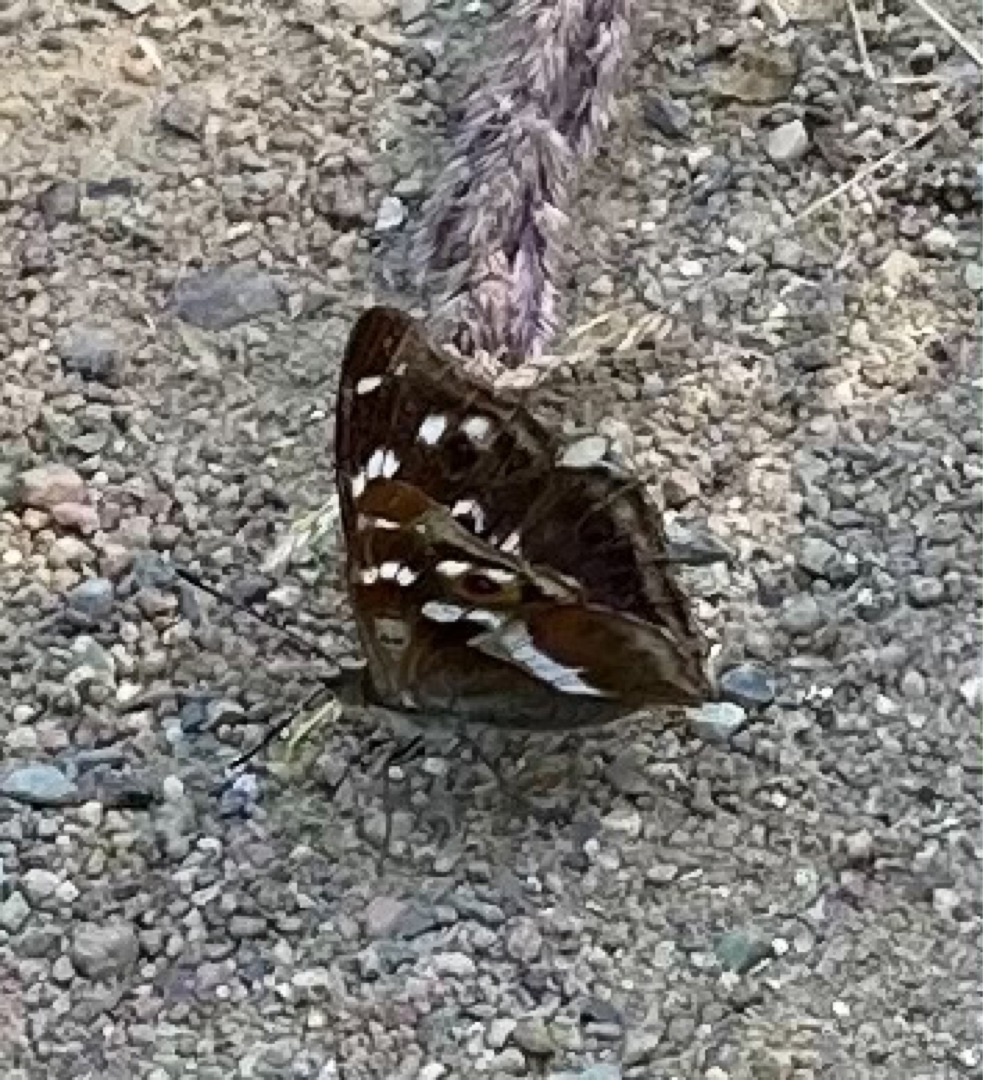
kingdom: Animalia
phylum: Arthropoda
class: Insecta
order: Lepidoptera
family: Nymphalidae
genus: Apatura
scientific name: Apatura iris
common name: Iris
